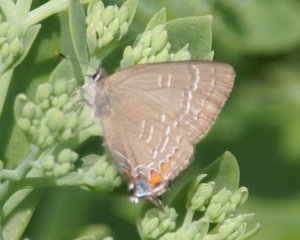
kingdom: Animalia
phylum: Arthropoda
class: Insecta
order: Lepidoptera
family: Lycaenidae
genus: Satyrium
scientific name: Satyrium calanus
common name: Banded Hairstreak
